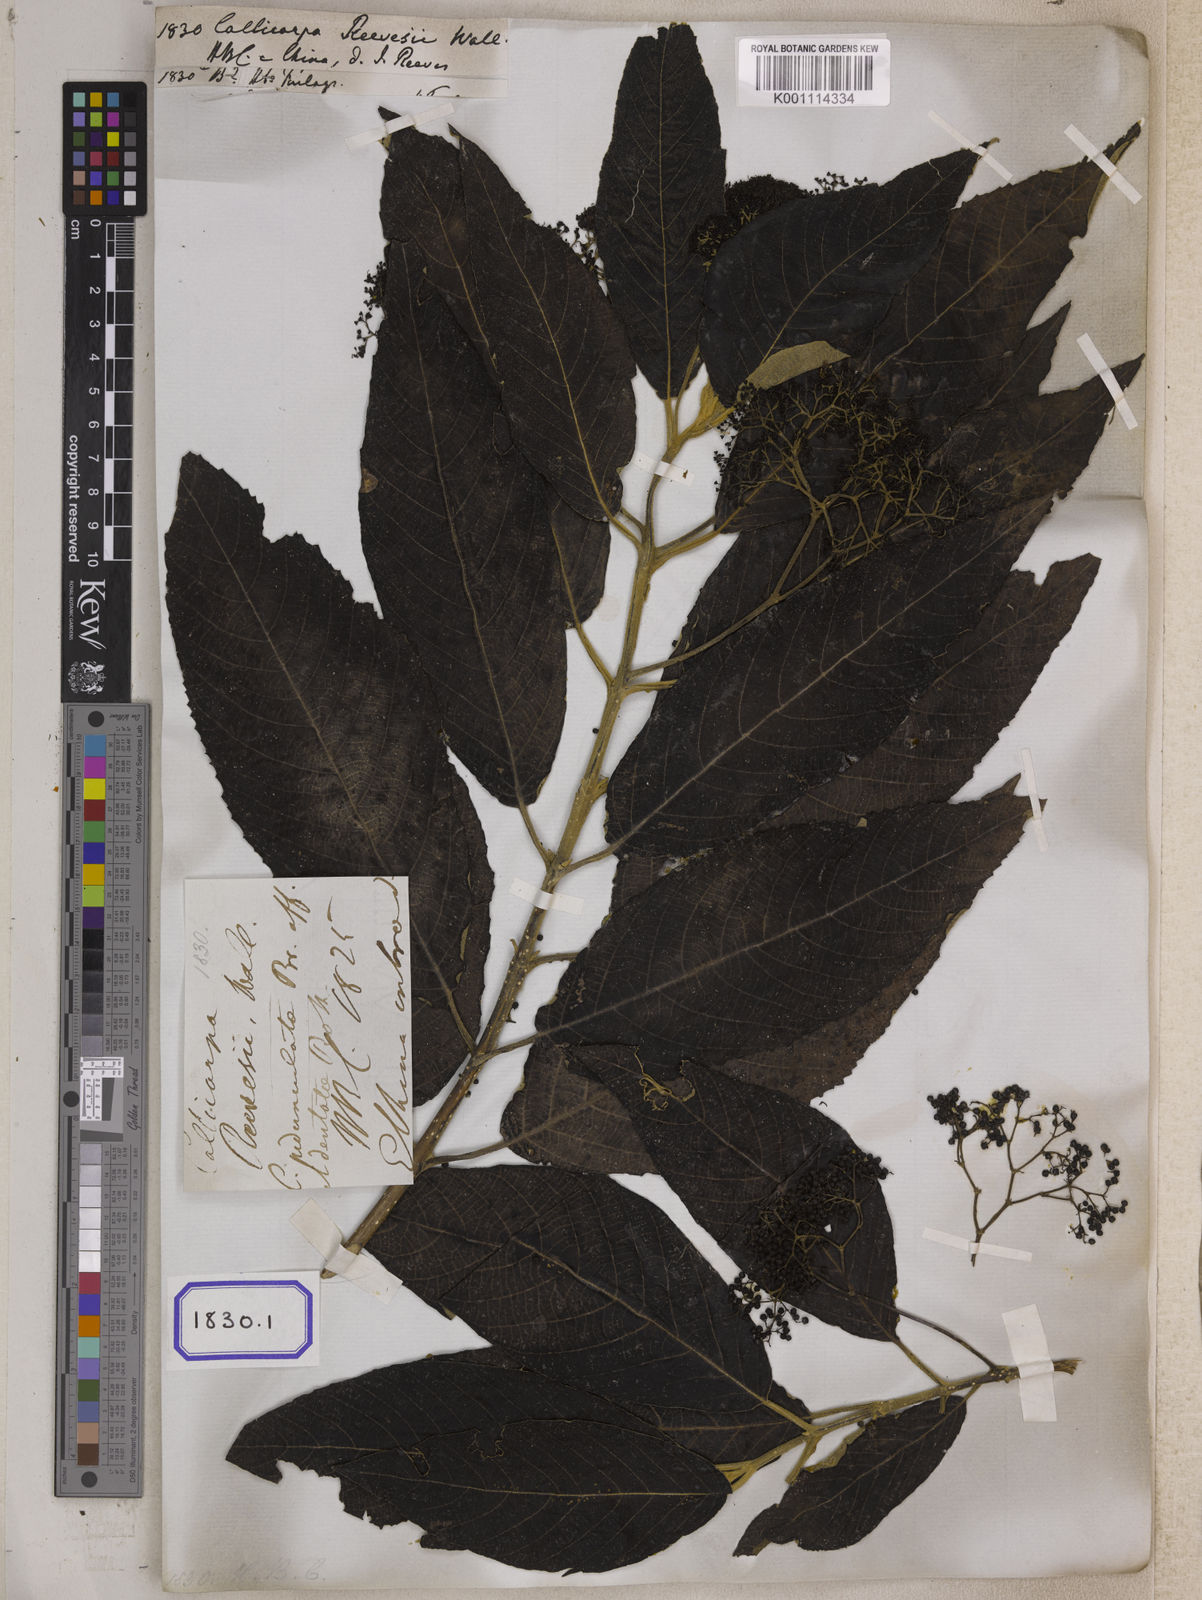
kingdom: Plantae
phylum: Tracheophyta
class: Magnoliopsida
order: Lamiales
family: Lamiaceae
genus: Callicarpa
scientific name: Callicarpa nudiflora
